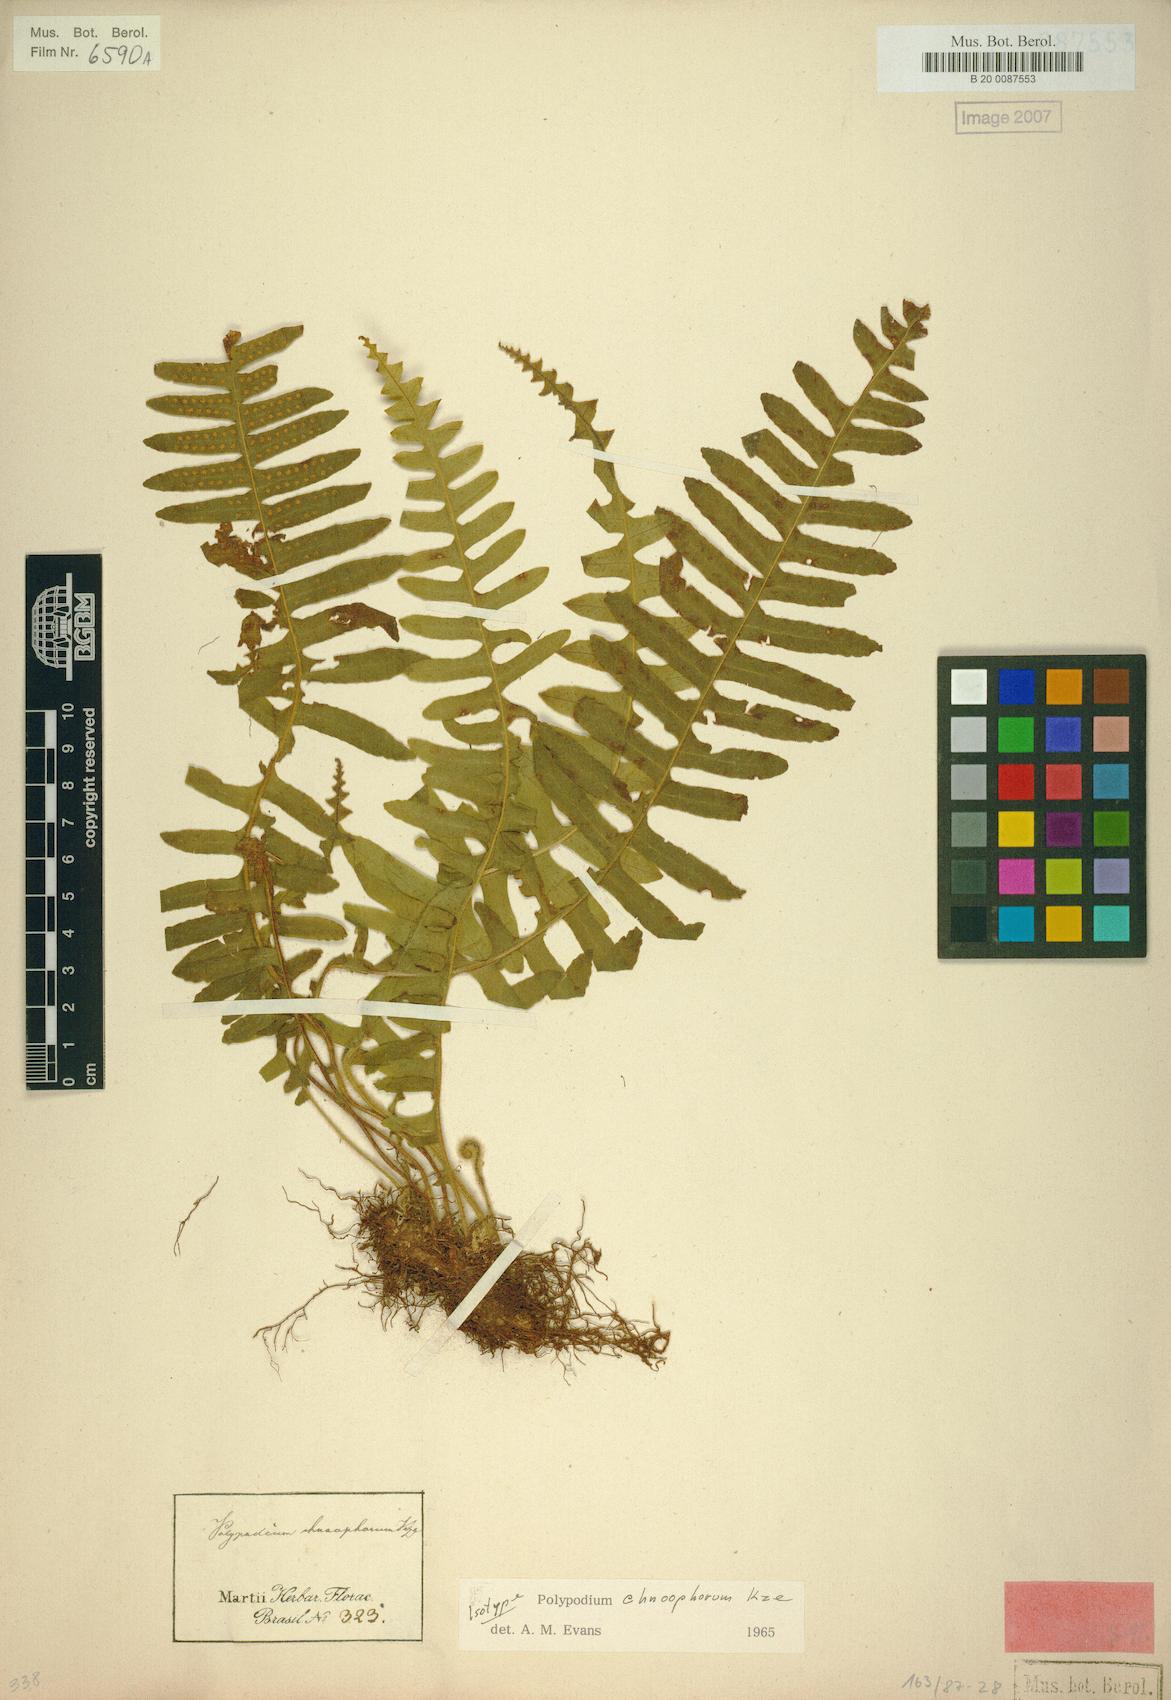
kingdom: Plantae
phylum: Tracheophyta
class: Polypodiopsida
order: Polypodiales
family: Polypodiaceae
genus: Pecluma
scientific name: Pecluma chnoophora
